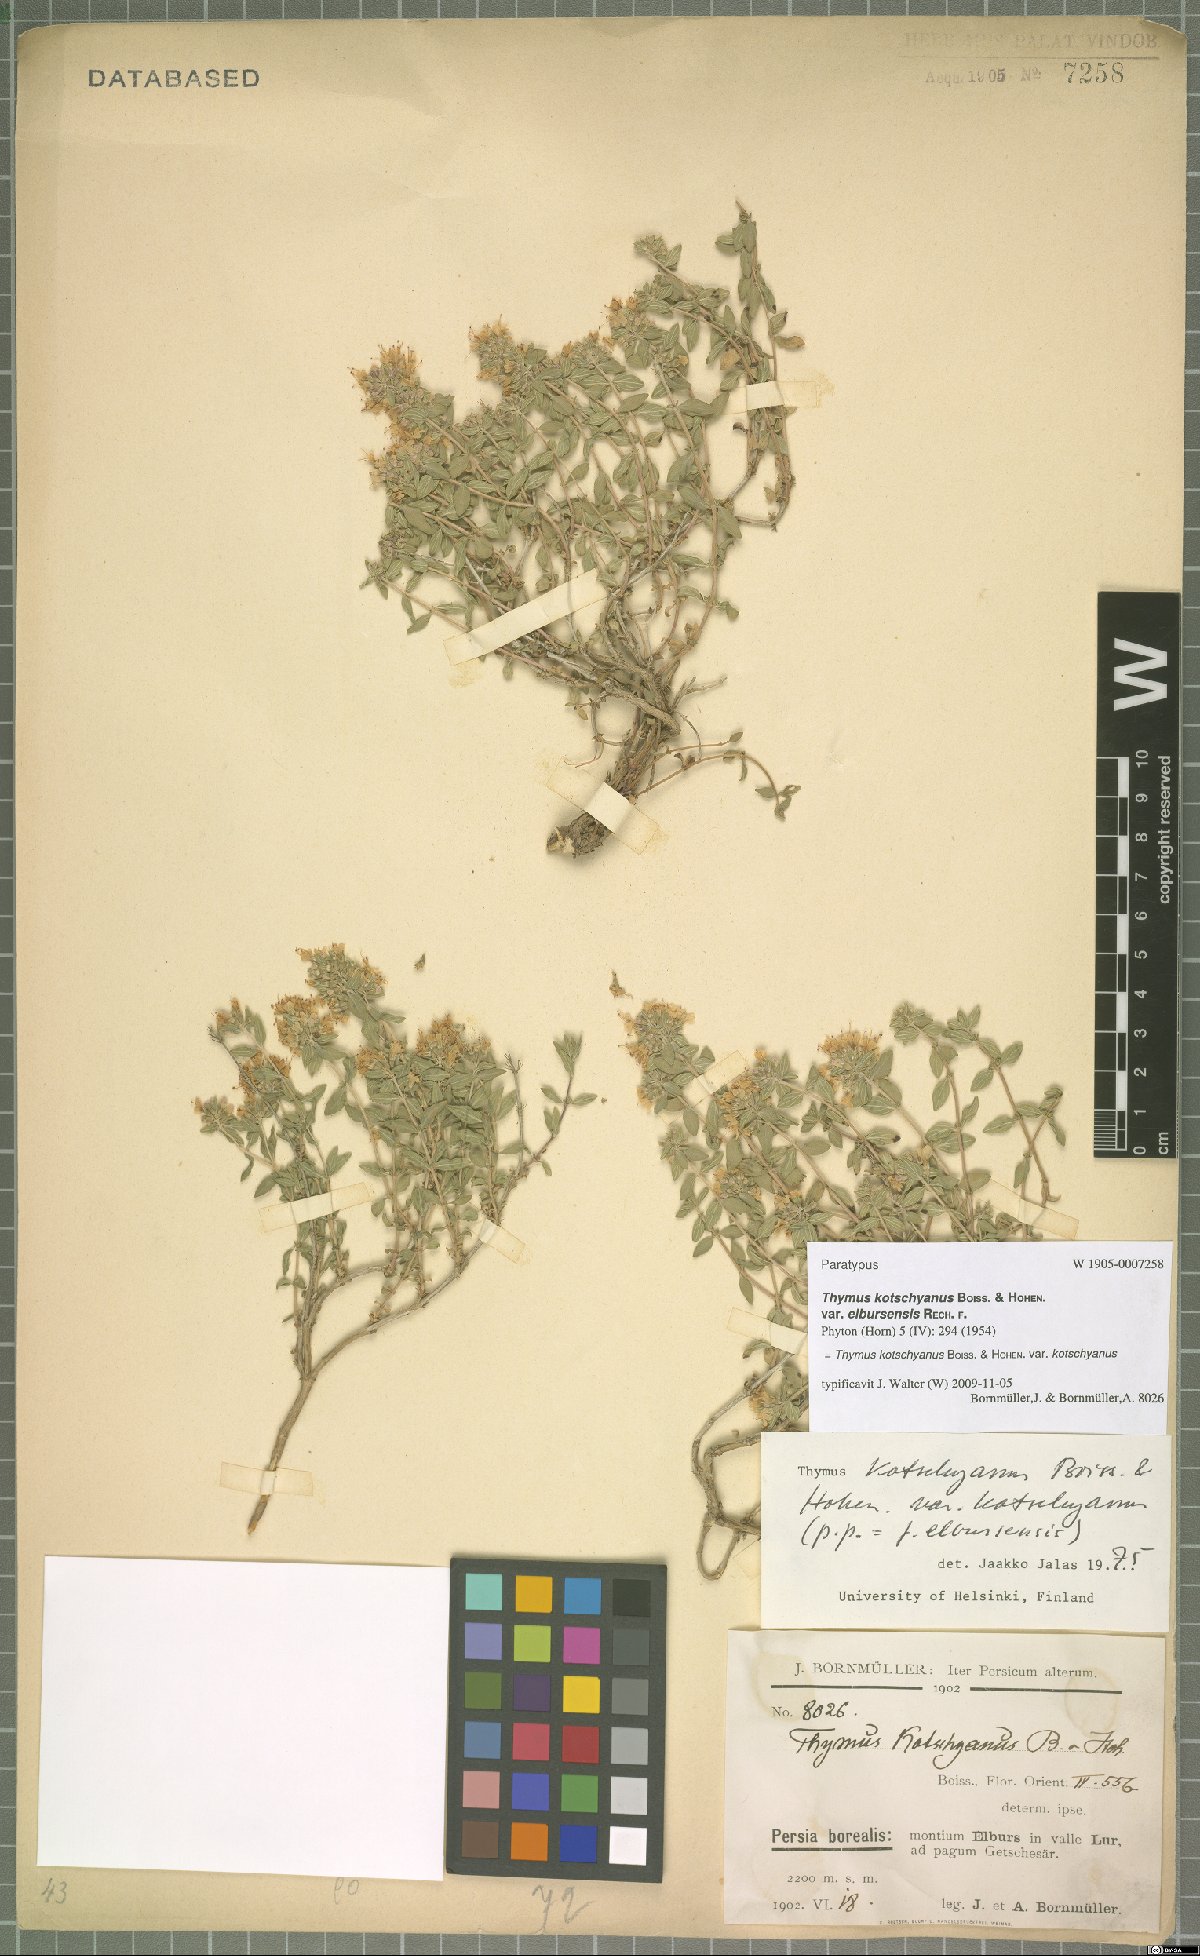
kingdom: Plantae
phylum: Tracheophyta
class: Magnoliopsida
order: Lamiales
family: Lamiaceae
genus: Thymus
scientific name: Thymus kotschyanus
